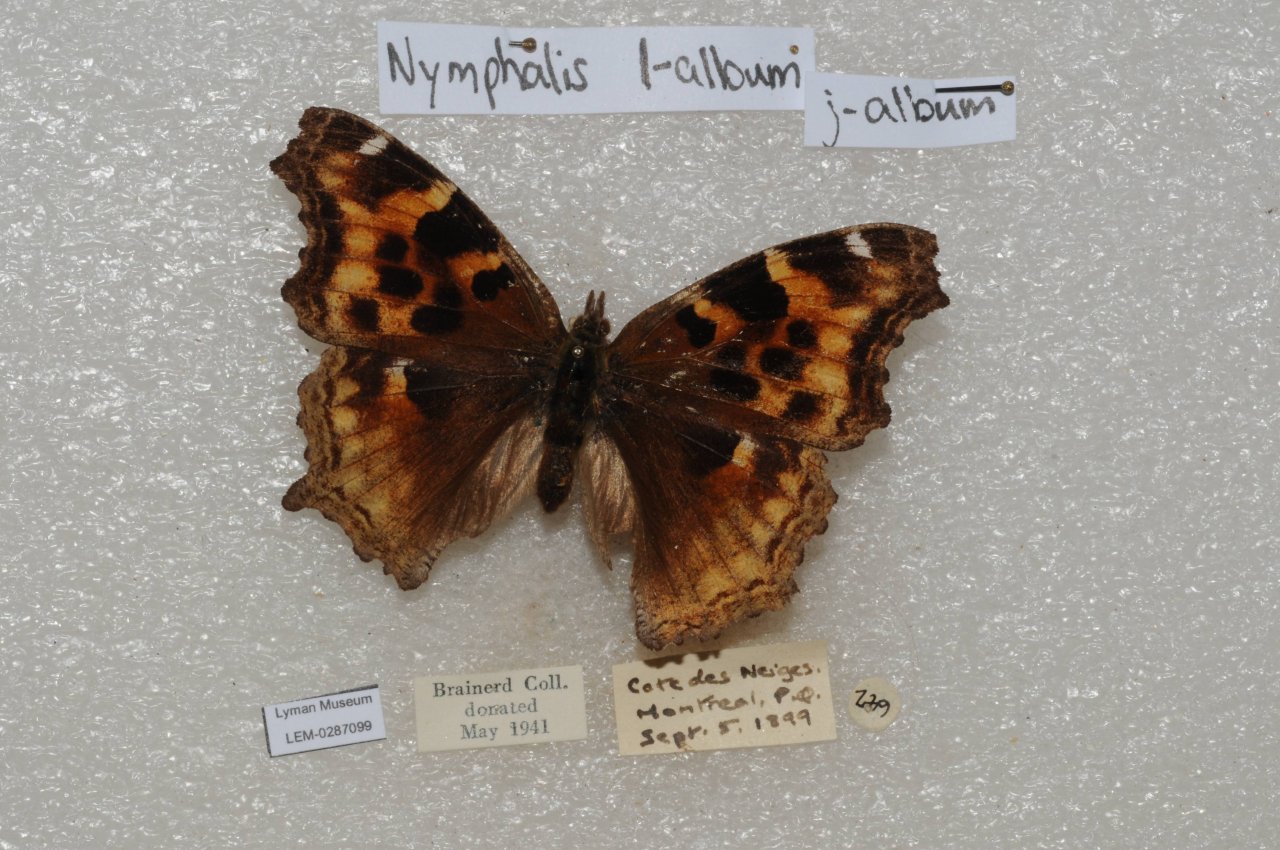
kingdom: Animalia
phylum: Arthropoda
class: Insecta
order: Lepidoptera
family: Nymphalidae
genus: Polygonia
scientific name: Polygonia vaualbum
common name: Compton Tortoiseshell
